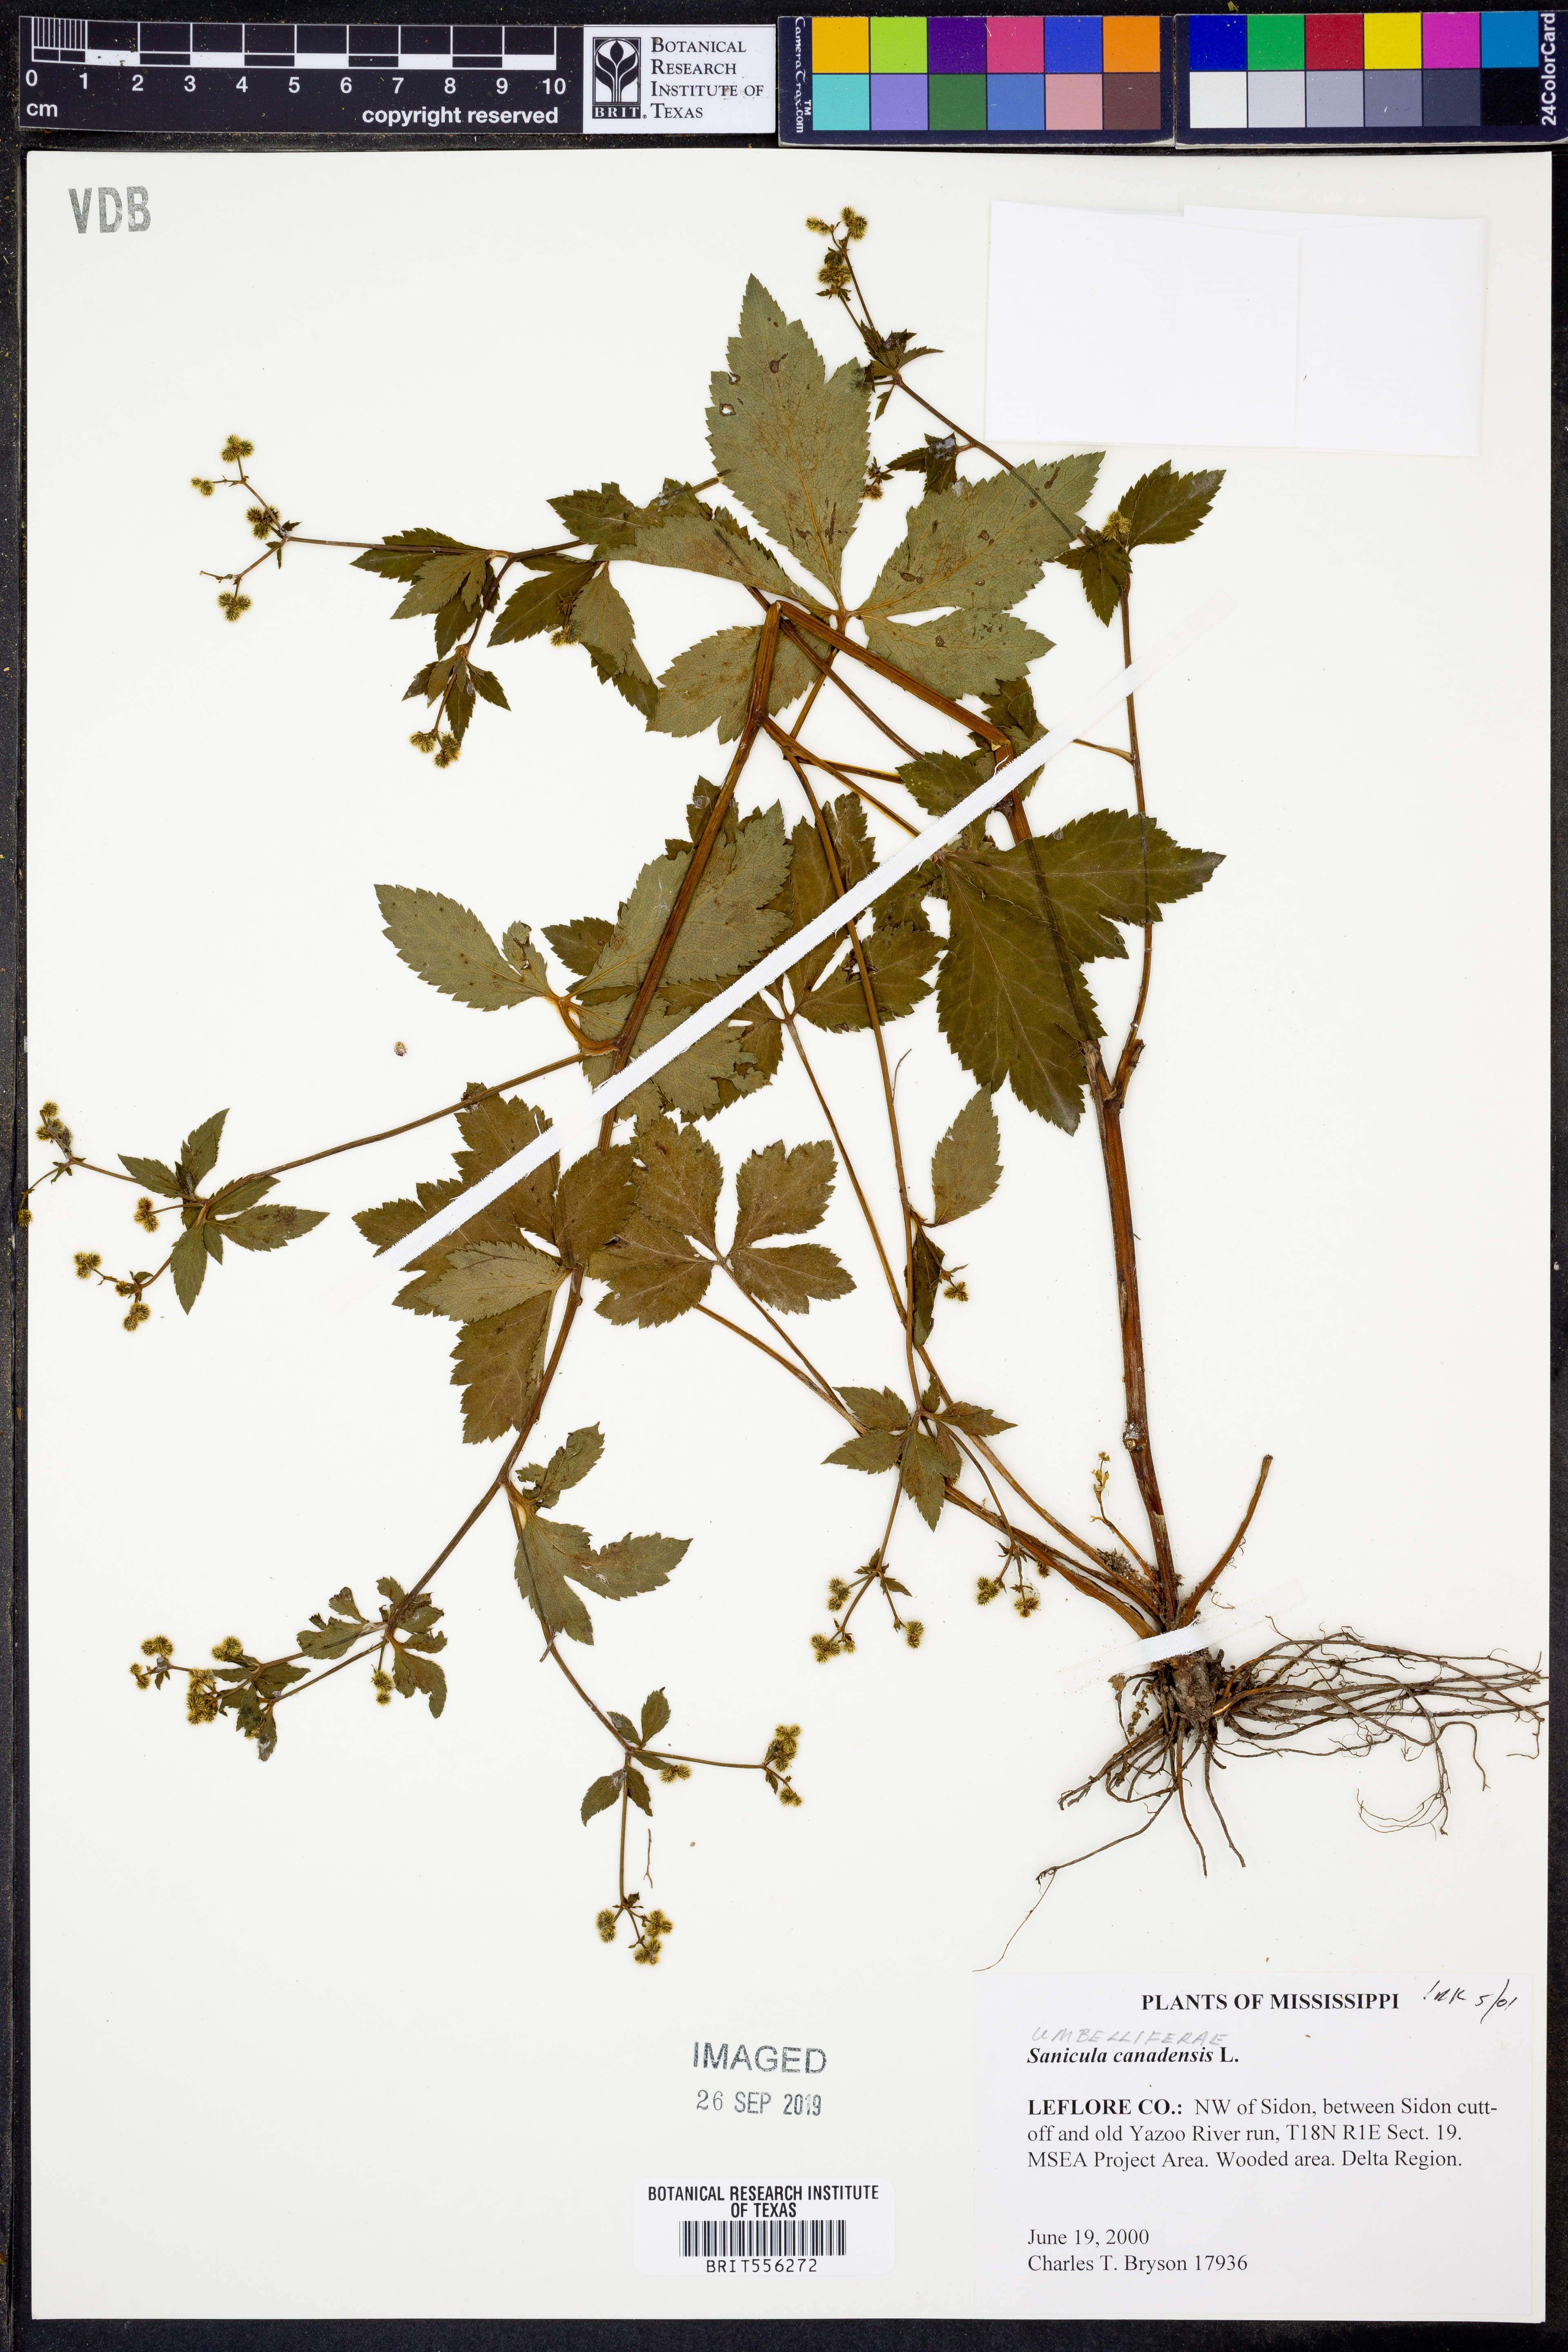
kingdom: Plantae
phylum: Tracheophyta
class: Magnoliopsida
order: Apiales
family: Apiaceae
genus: Sanicula
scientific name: Sanicula canadensis
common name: Canada sanicle
